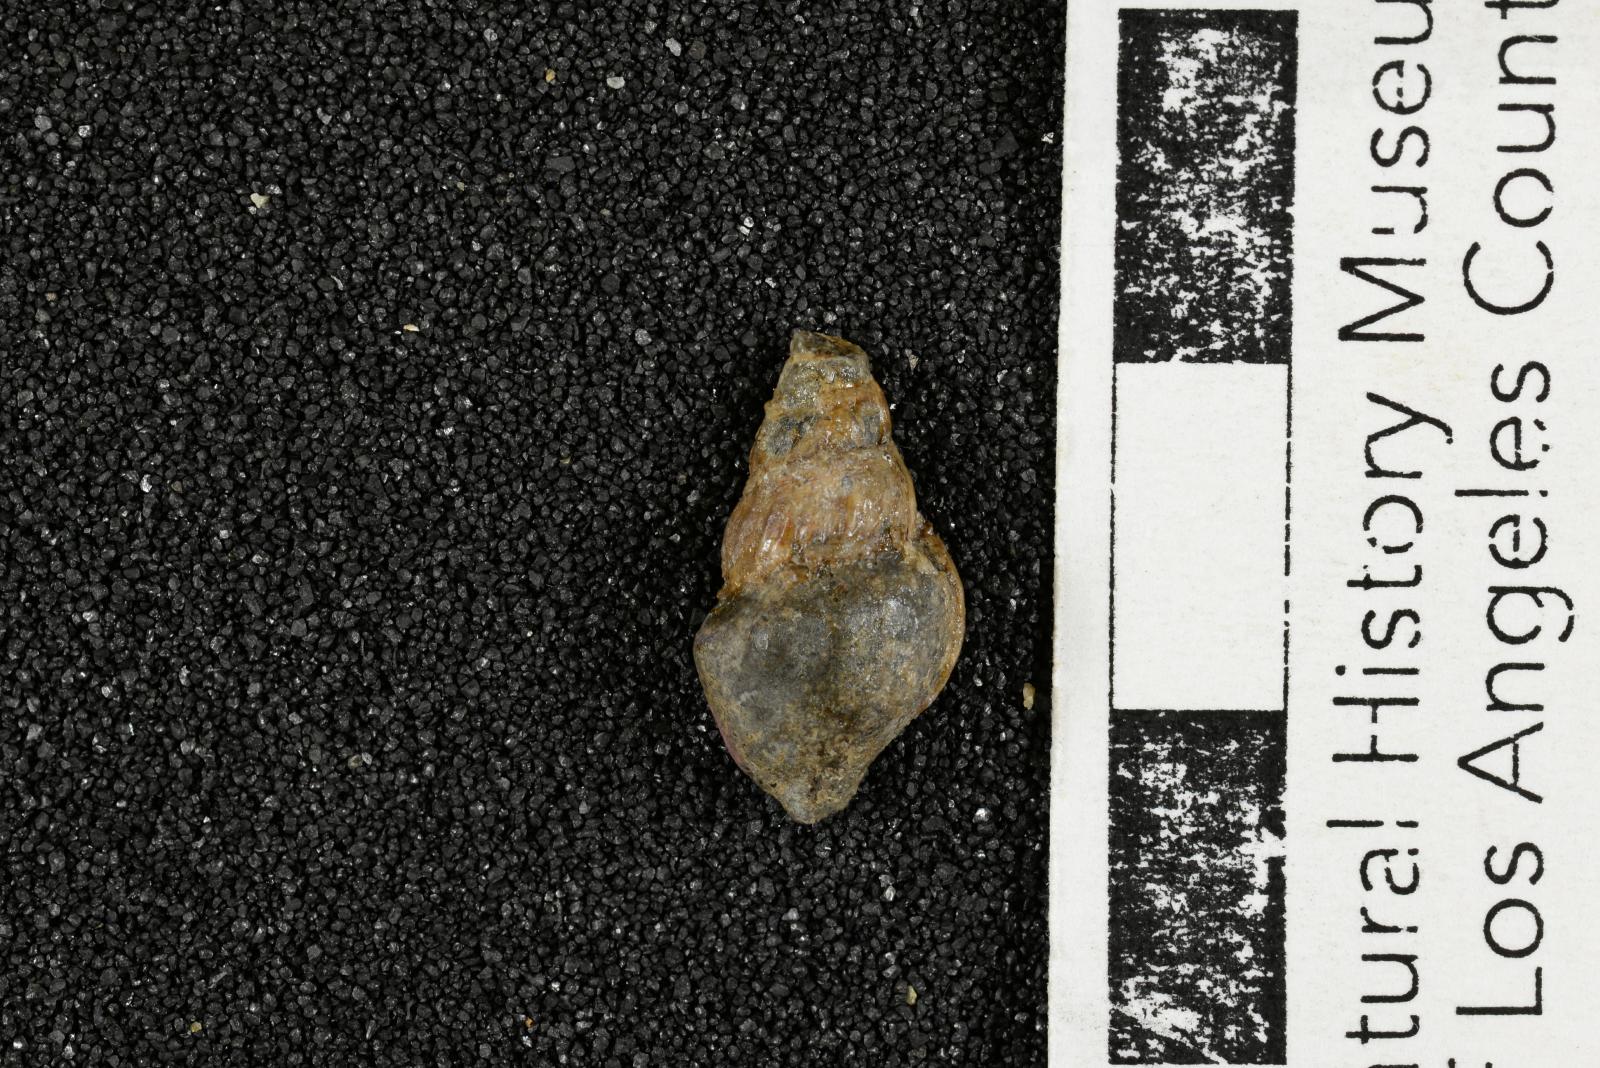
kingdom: Animalia
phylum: Mollusca
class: Gastropoda
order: Littorinimorpha
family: Aporrhaidae
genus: Latiala
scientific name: Latiala Aporrhais californica
